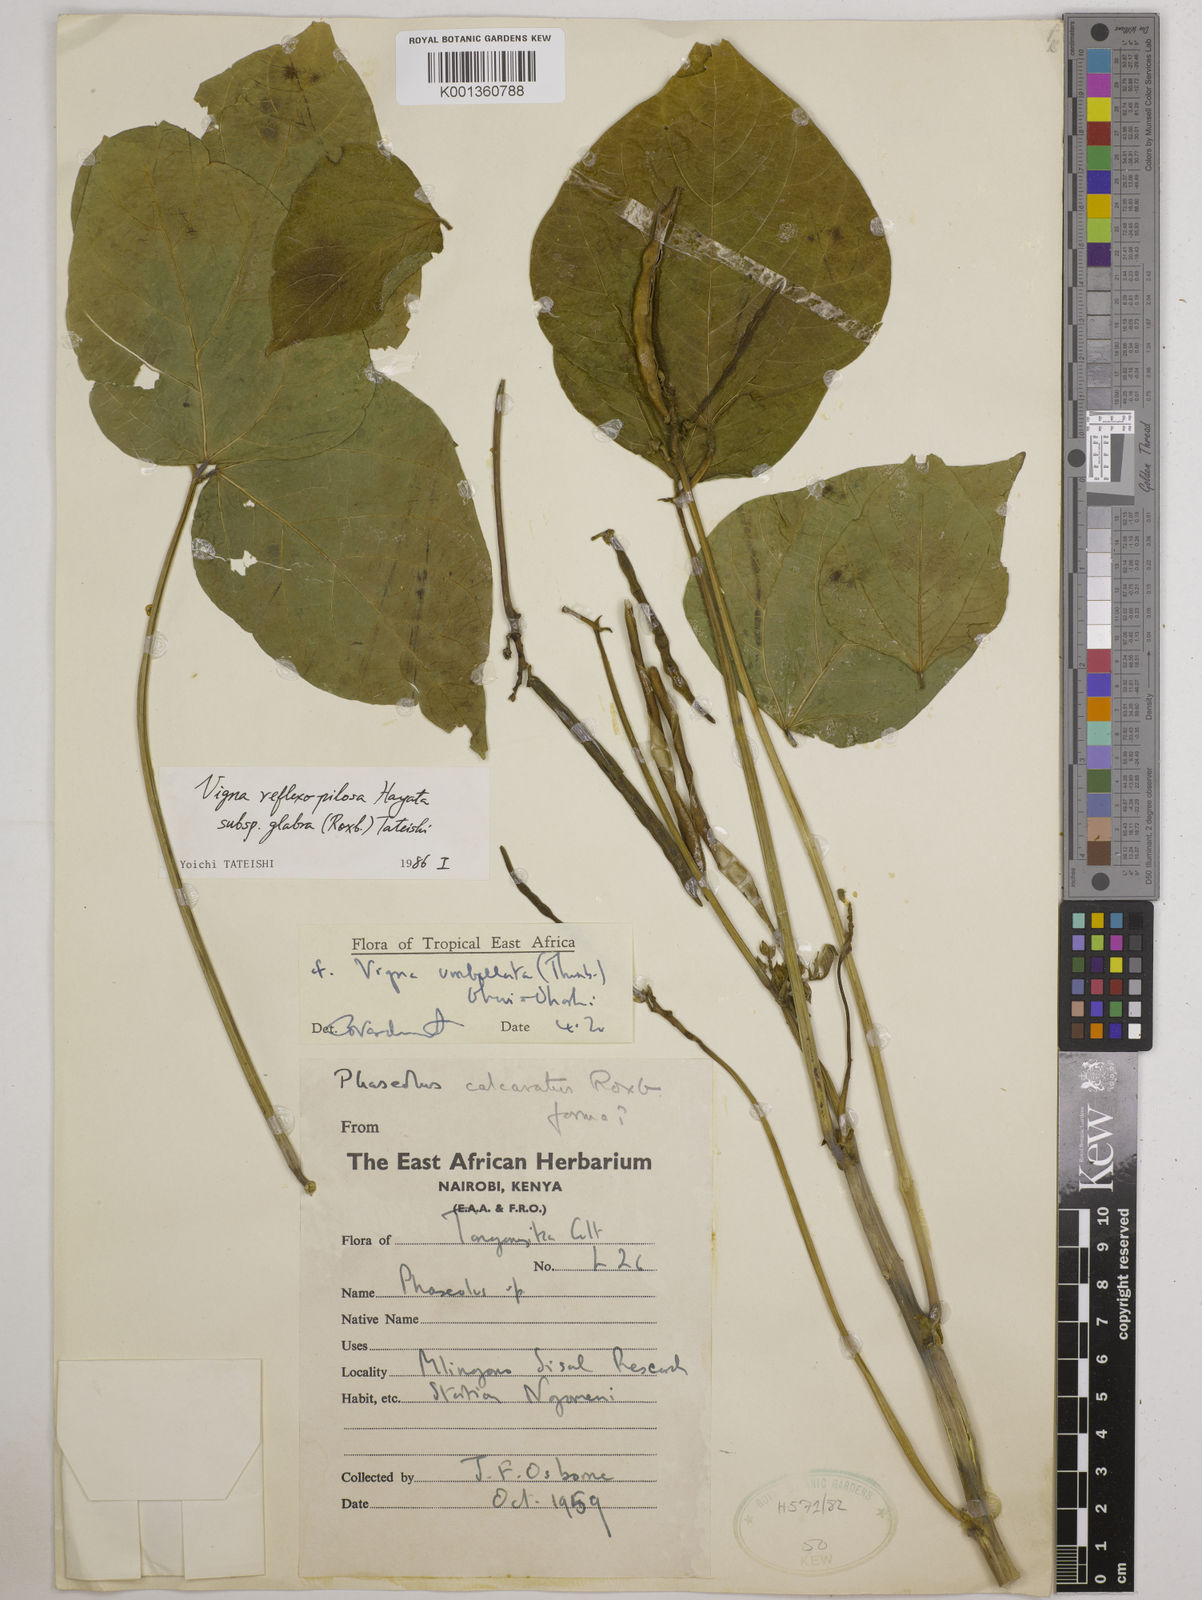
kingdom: Plantae
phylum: Tracheophyta
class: Magnoliopsida
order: Fabales
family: Fabaceae
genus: Vigna
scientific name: Vigna
